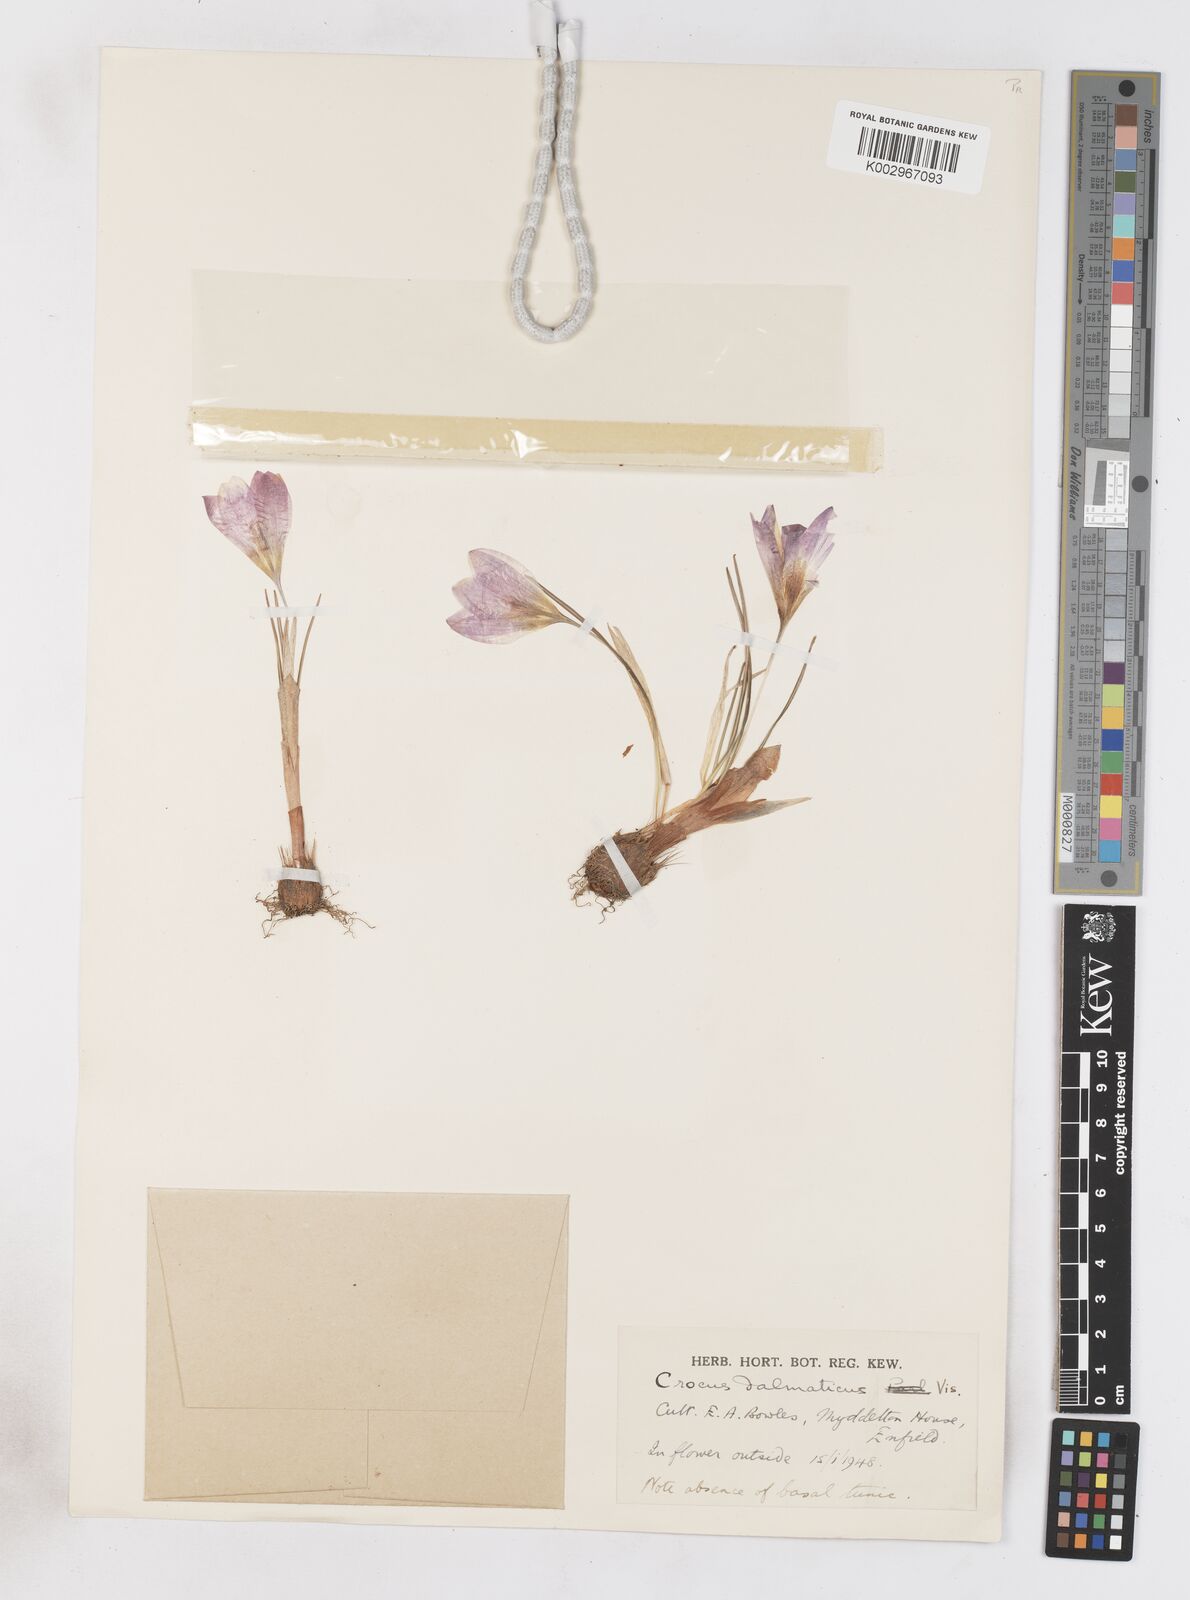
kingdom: Plantae
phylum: Tracheophyta
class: Liliopsida
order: Asparagales
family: Iridaceae
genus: Crocus
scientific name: Crocus dalmaticus
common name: Dalmatian saffron
